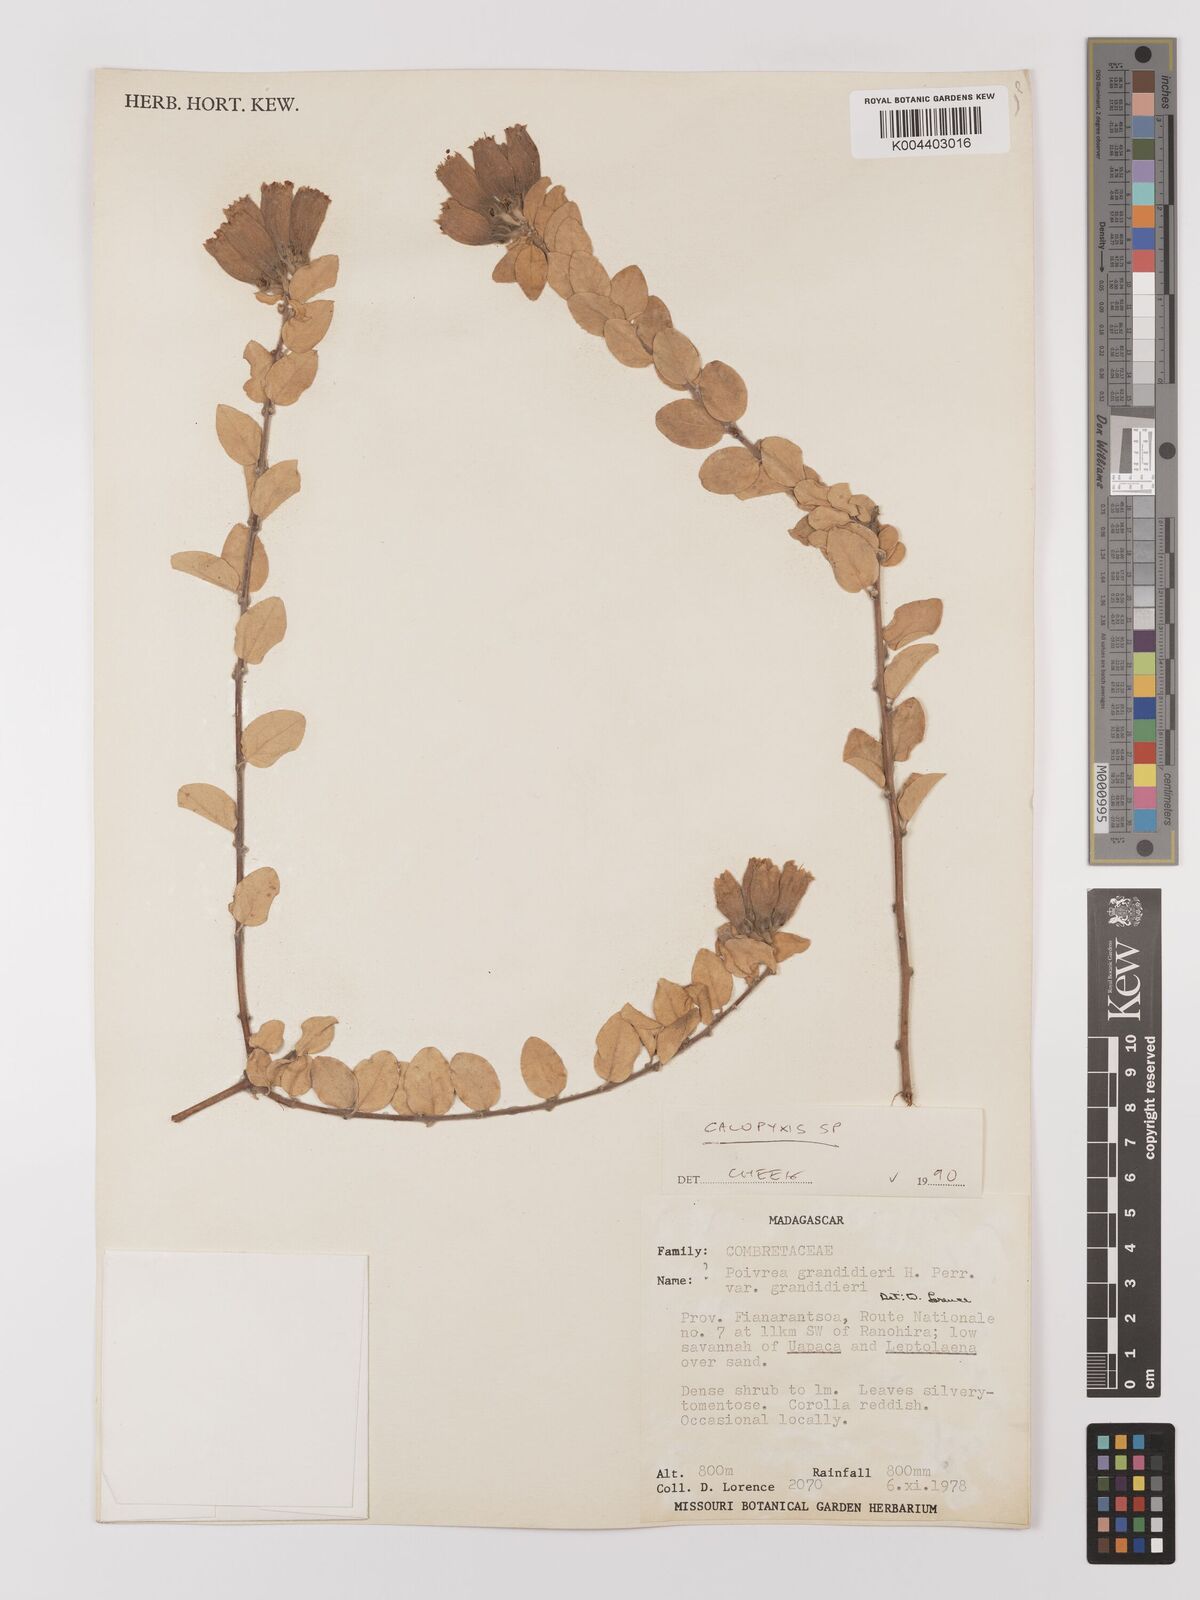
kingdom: Plantae
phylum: Tracheophyta
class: Magnoliopsida
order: Myrtales
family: Combretaceae
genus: Combretum
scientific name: Combretum
